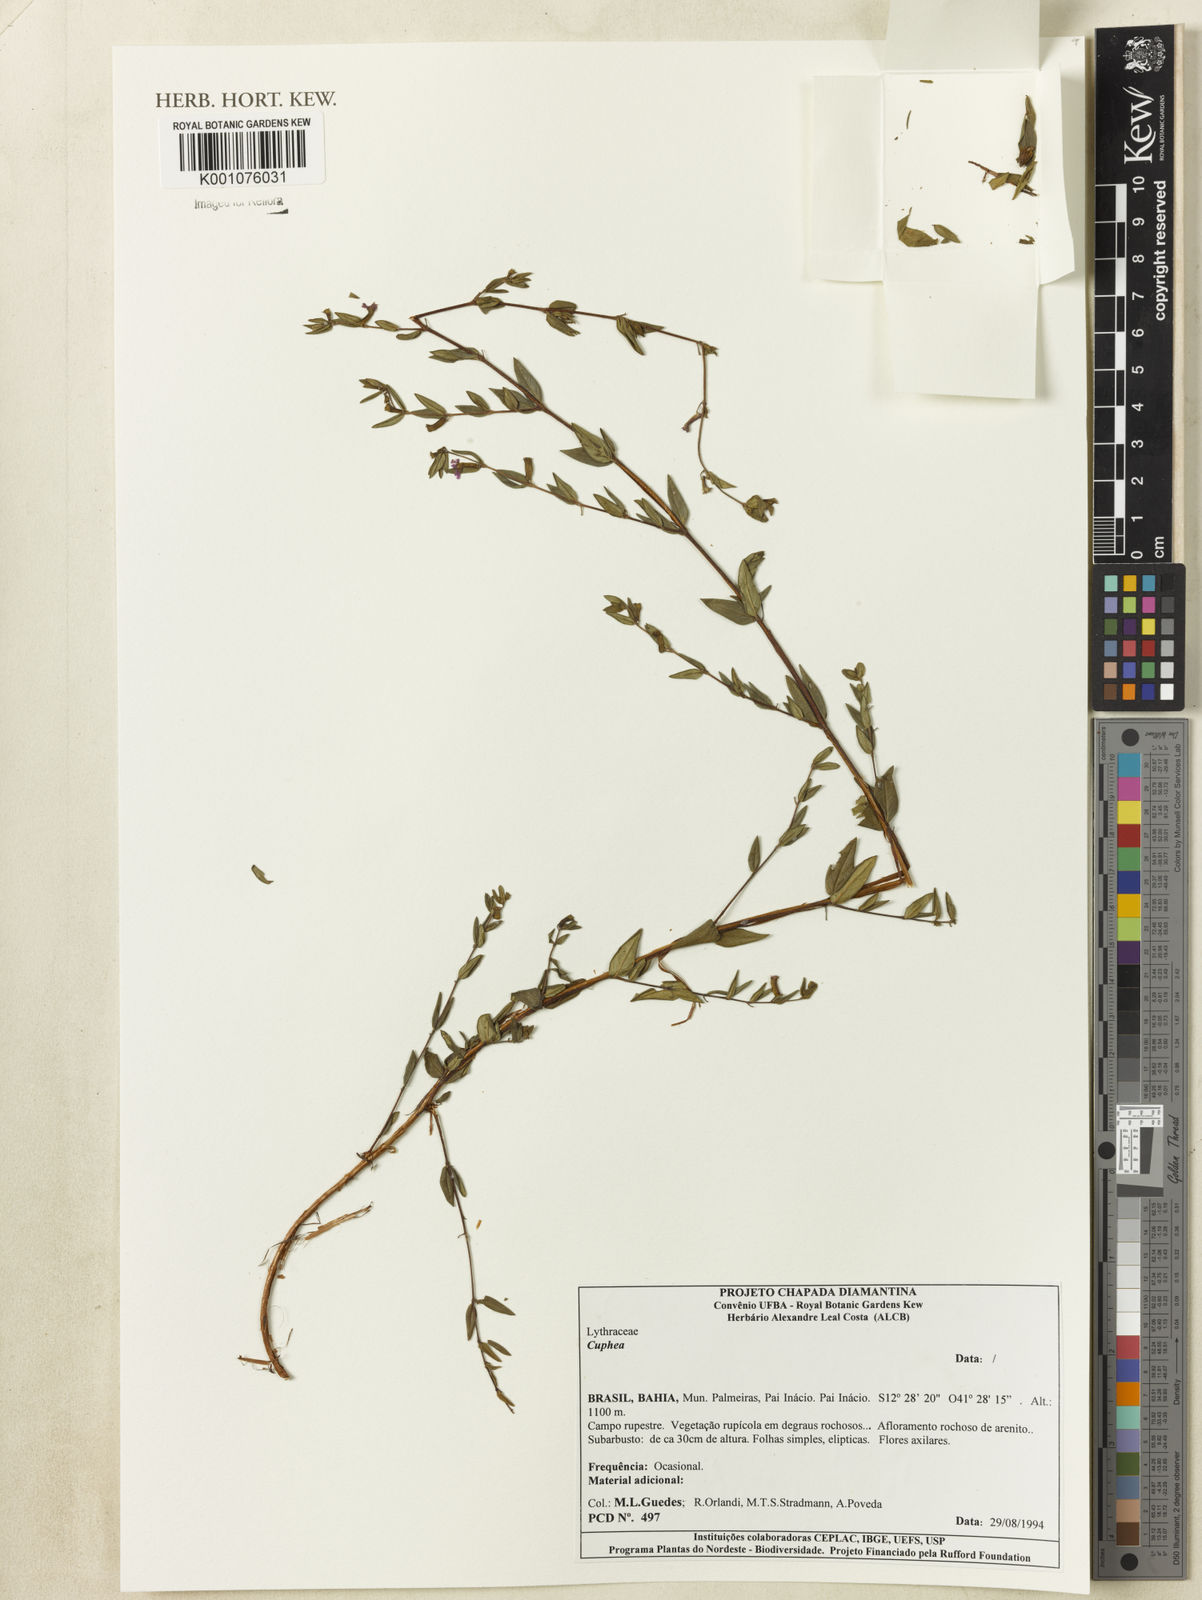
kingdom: Plantae
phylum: Tracheophyta
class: Magnoliopsida
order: Myrtales
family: Lythraceae
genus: Cuphea
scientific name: Cuphea
